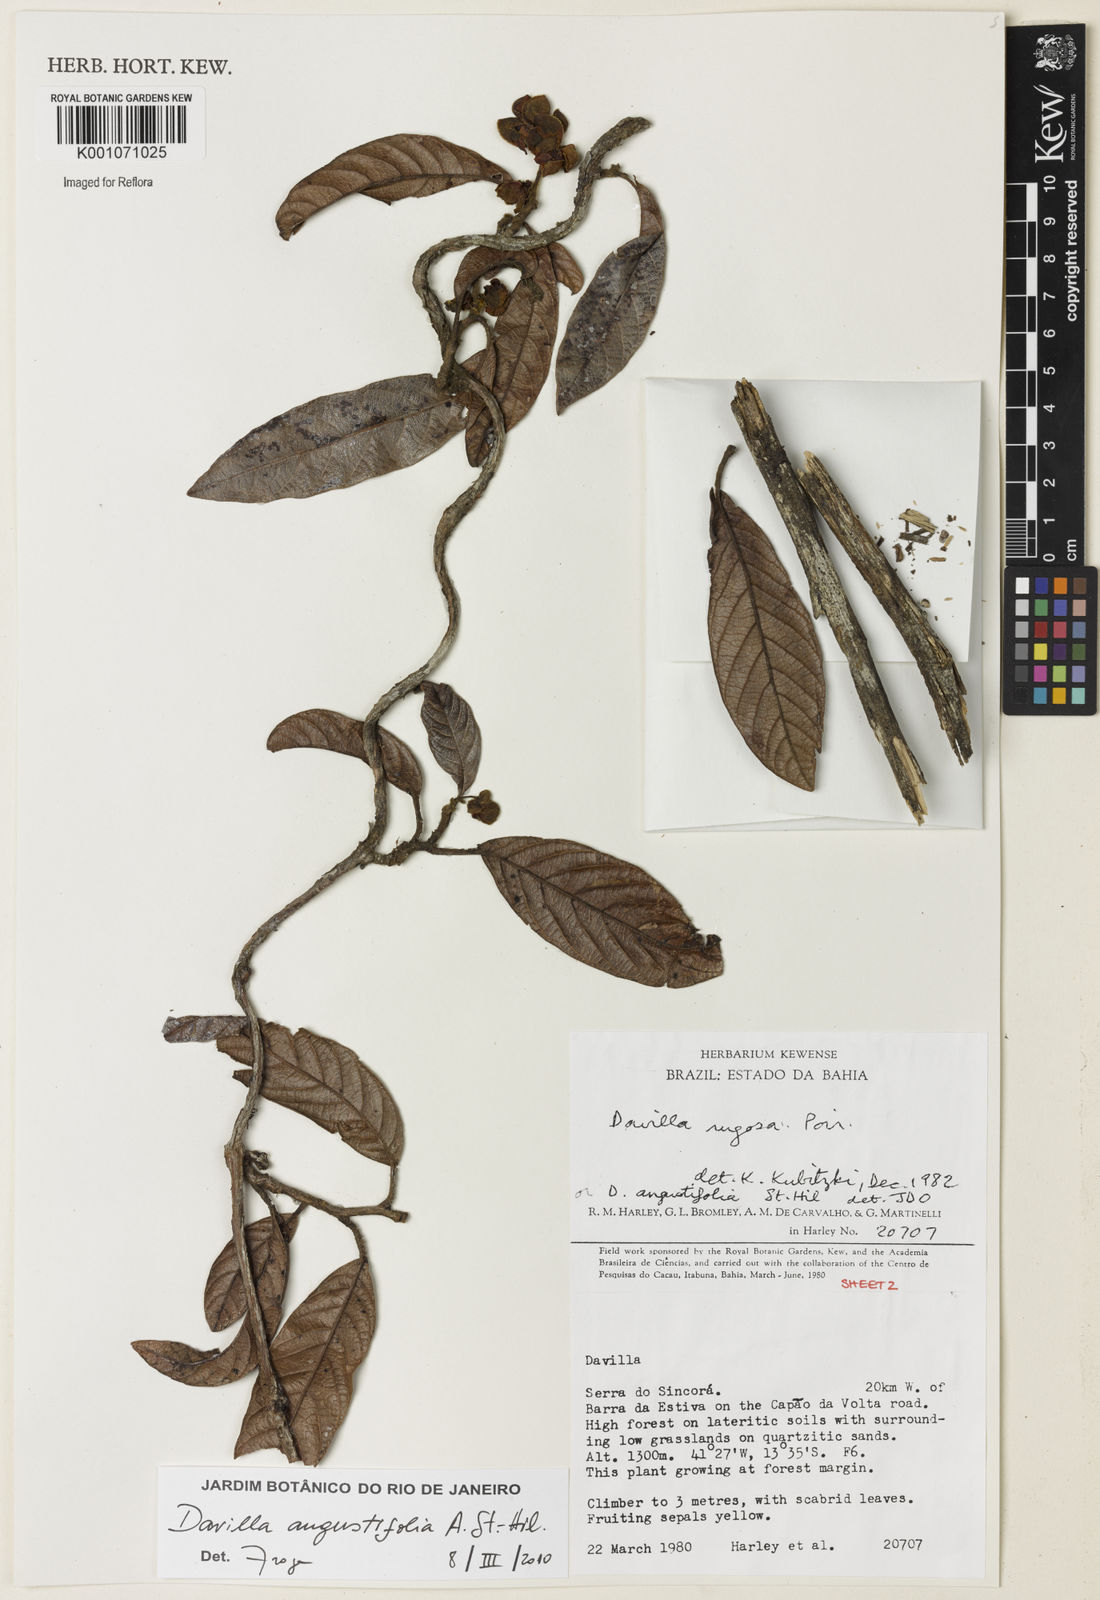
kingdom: Plantae
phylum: Tracheophyta
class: Magnoliopsida
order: Dilleniales
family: Dilleniaceae
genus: Davilla
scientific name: Davilla angustifolia
